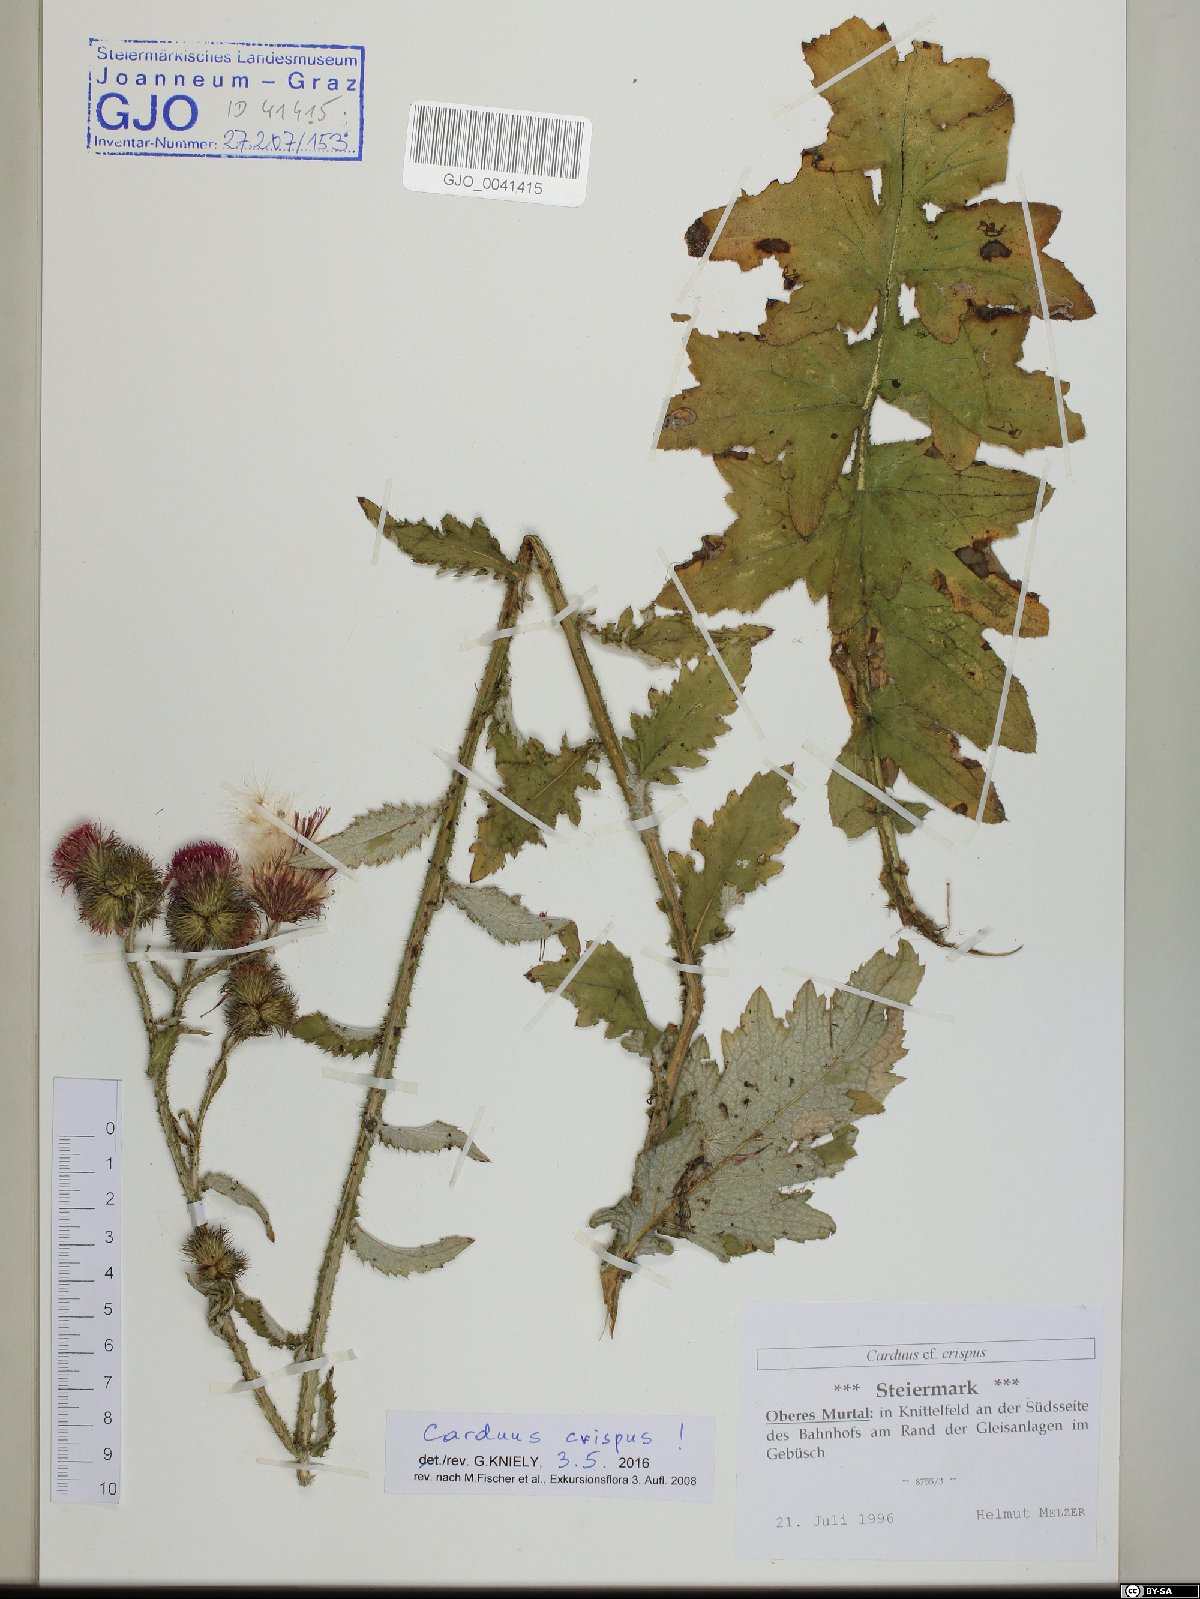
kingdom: Plantae
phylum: Tracheophyta
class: Magnoliopsida
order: Asterales
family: Asteraceae
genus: Carduus
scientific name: Carduus crispus
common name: Welted thistle
